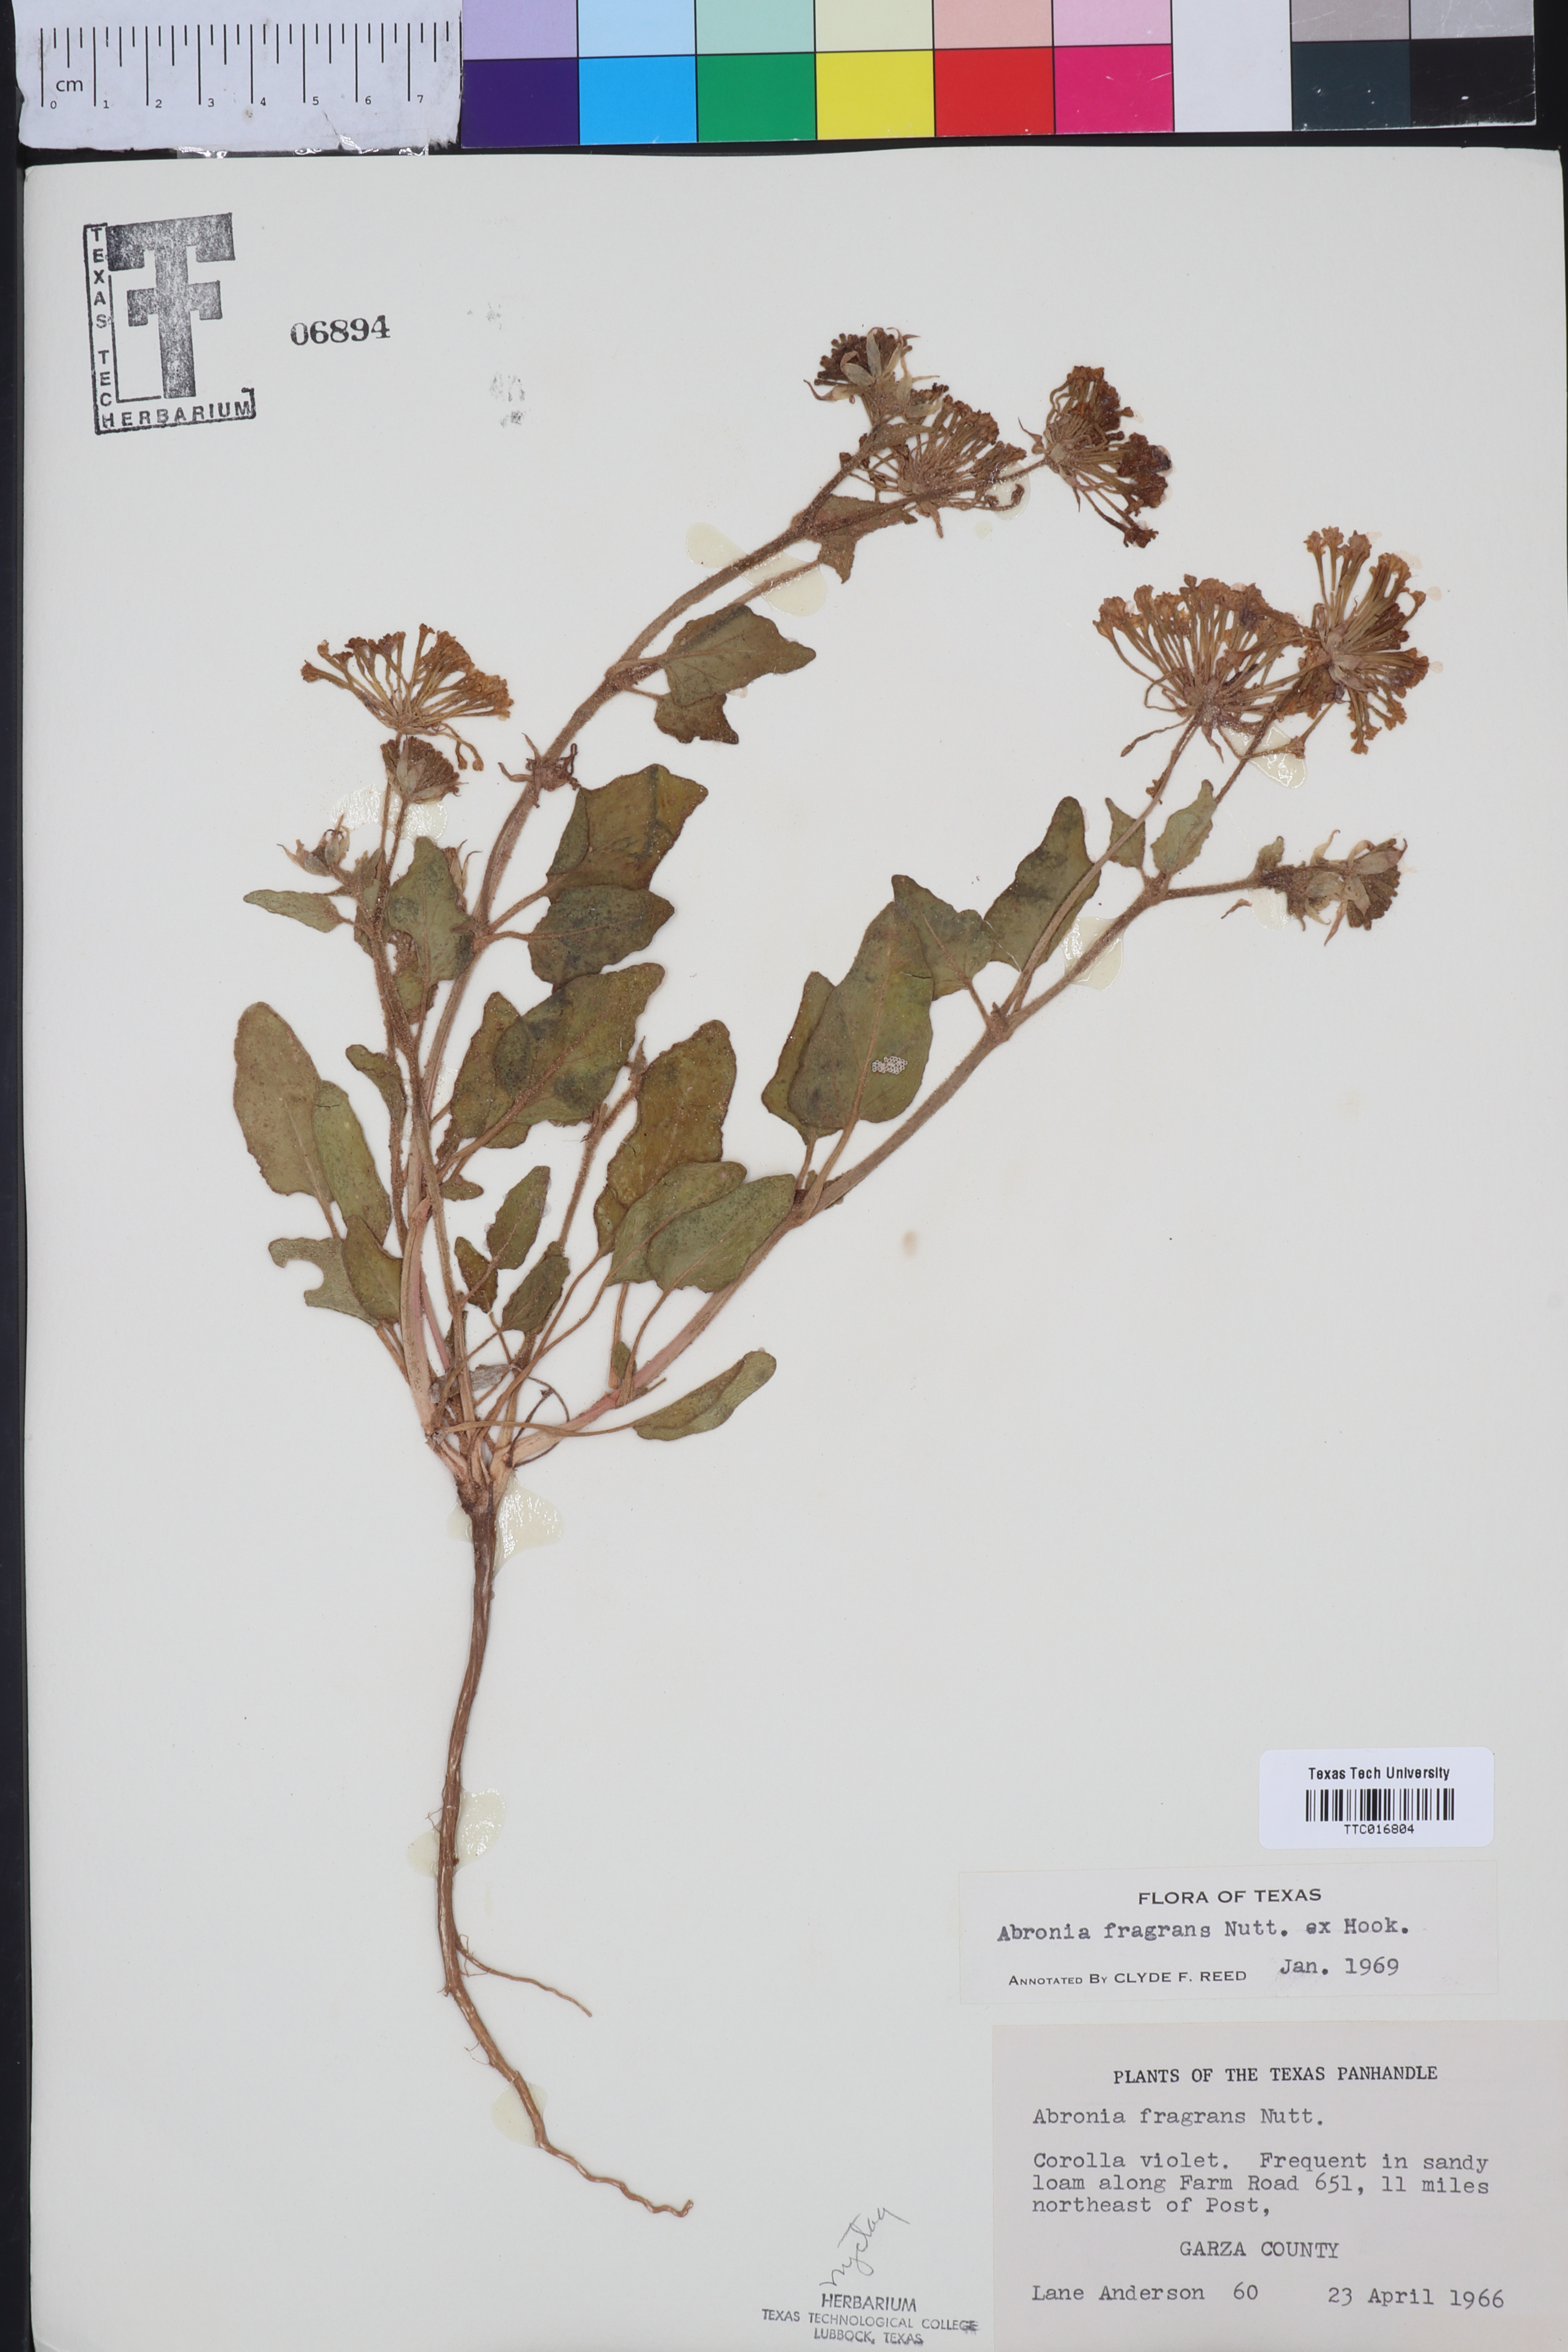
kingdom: Plantae
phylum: Tracheophyta
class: Magnoliopsida
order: Caryophyllales
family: Nyctaginaceae
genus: Abronia
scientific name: Abronia fragrans
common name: Fragrant sand-verbena
